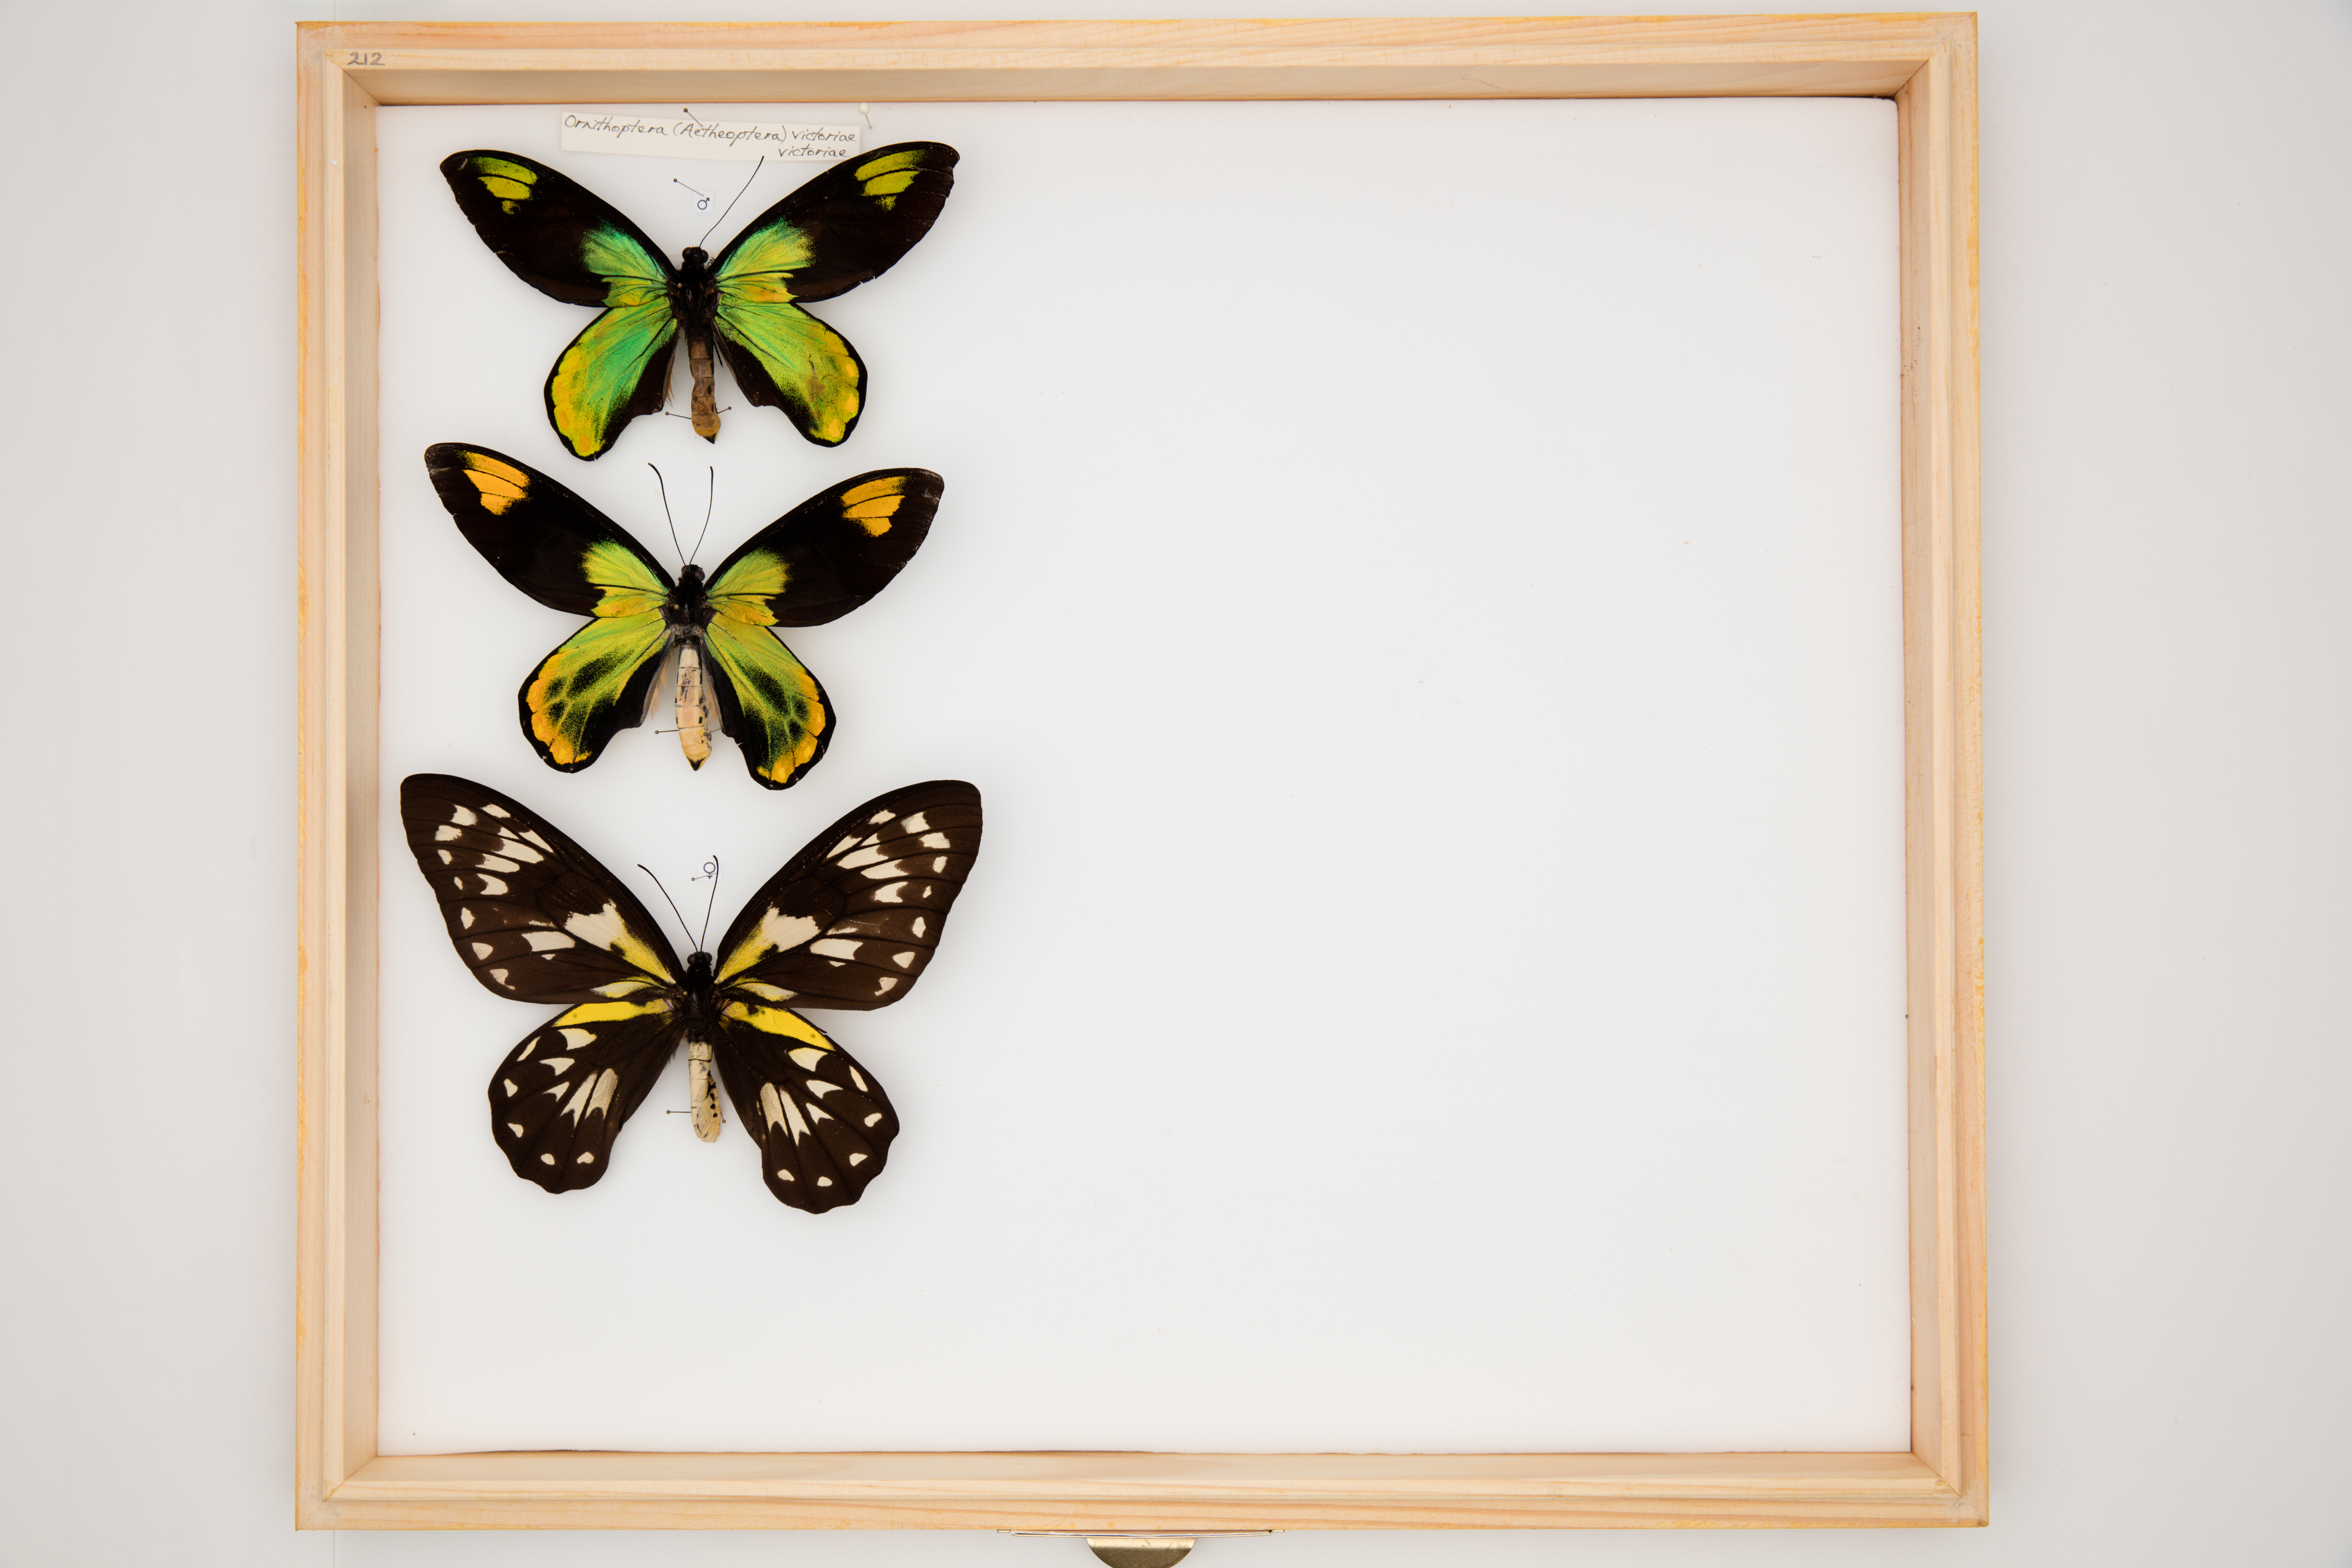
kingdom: Animalia
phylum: Arthropoda
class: Insecta
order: Lepidoptera
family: Papilionidae
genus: Ornithoptera
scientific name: Ornithoptera victoriae
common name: Queen victoria's birdwing
